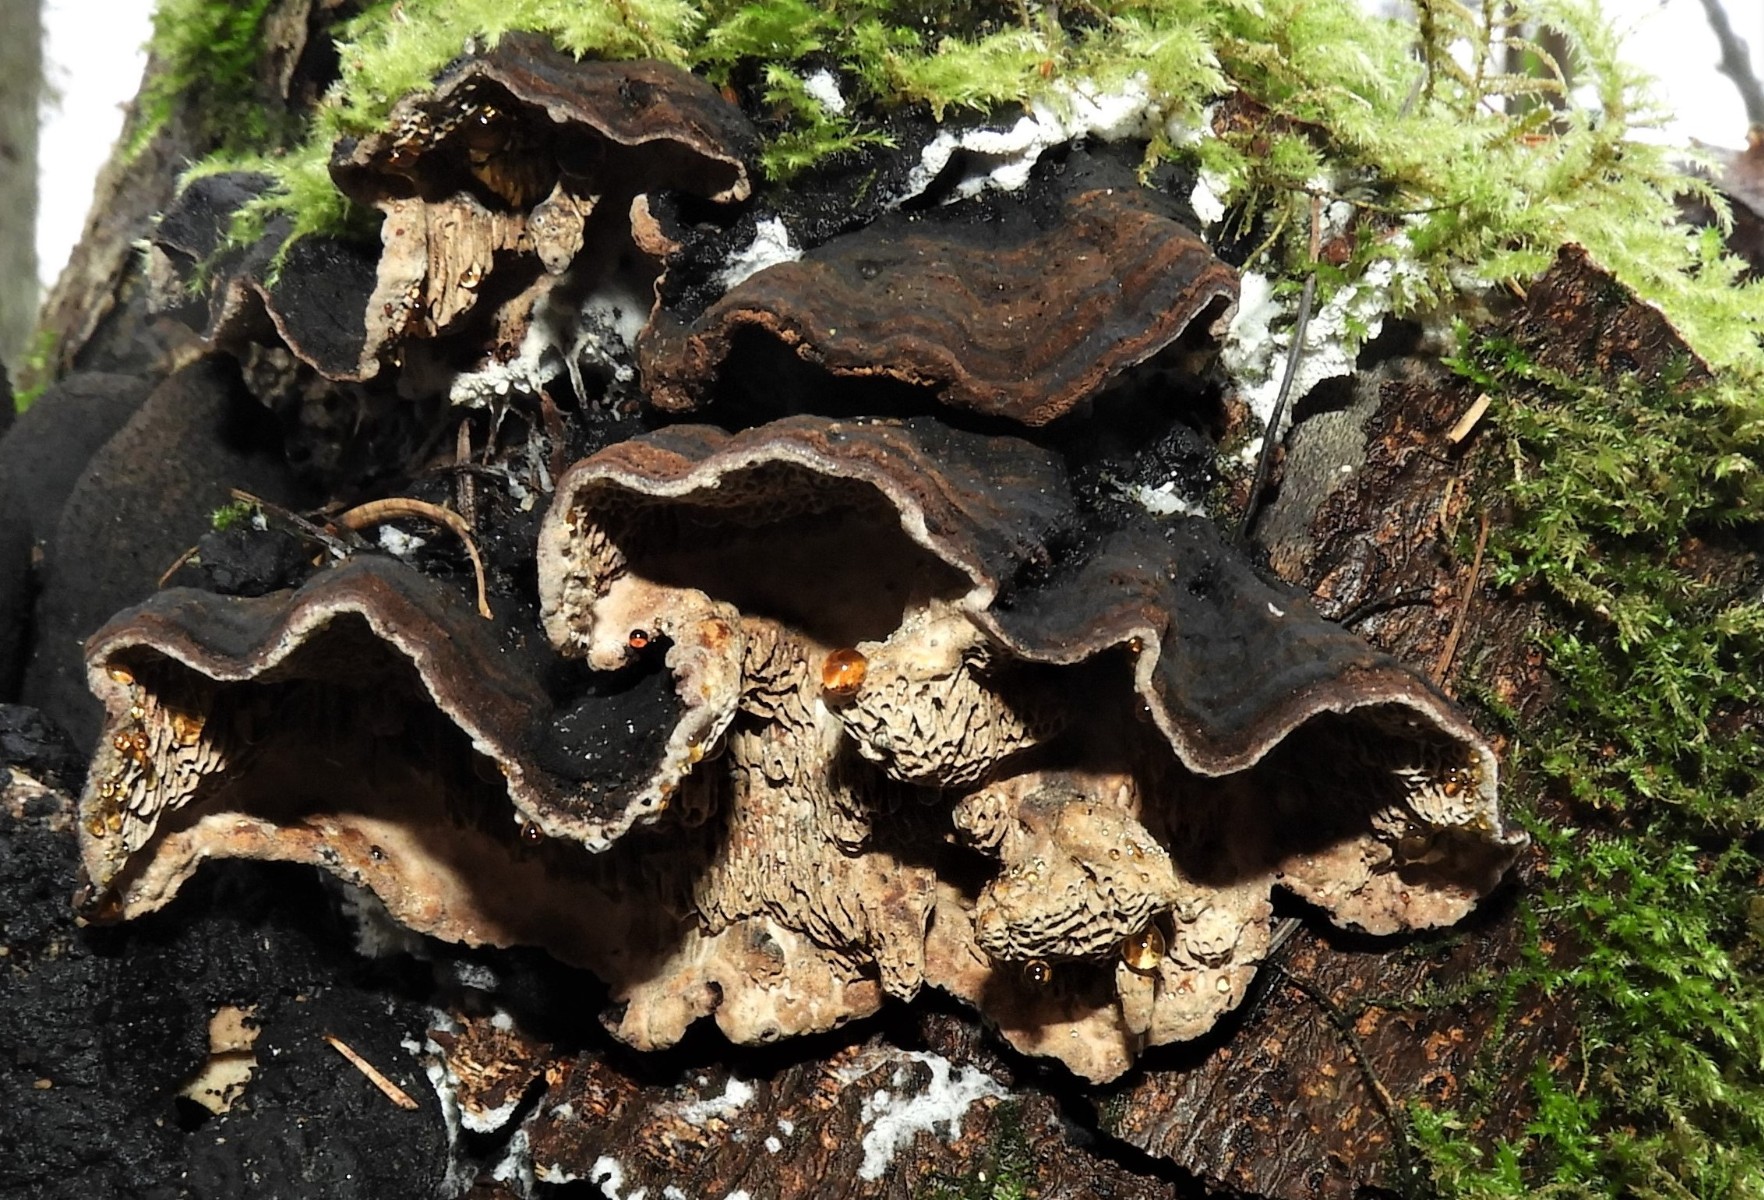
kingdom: Fungi
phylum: Basidiomycota
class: Agaricomycetes
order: Polyporales
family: Polyporaceae
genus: Podofomes
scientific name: Podofomes mollis
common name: blød begporesvamp
